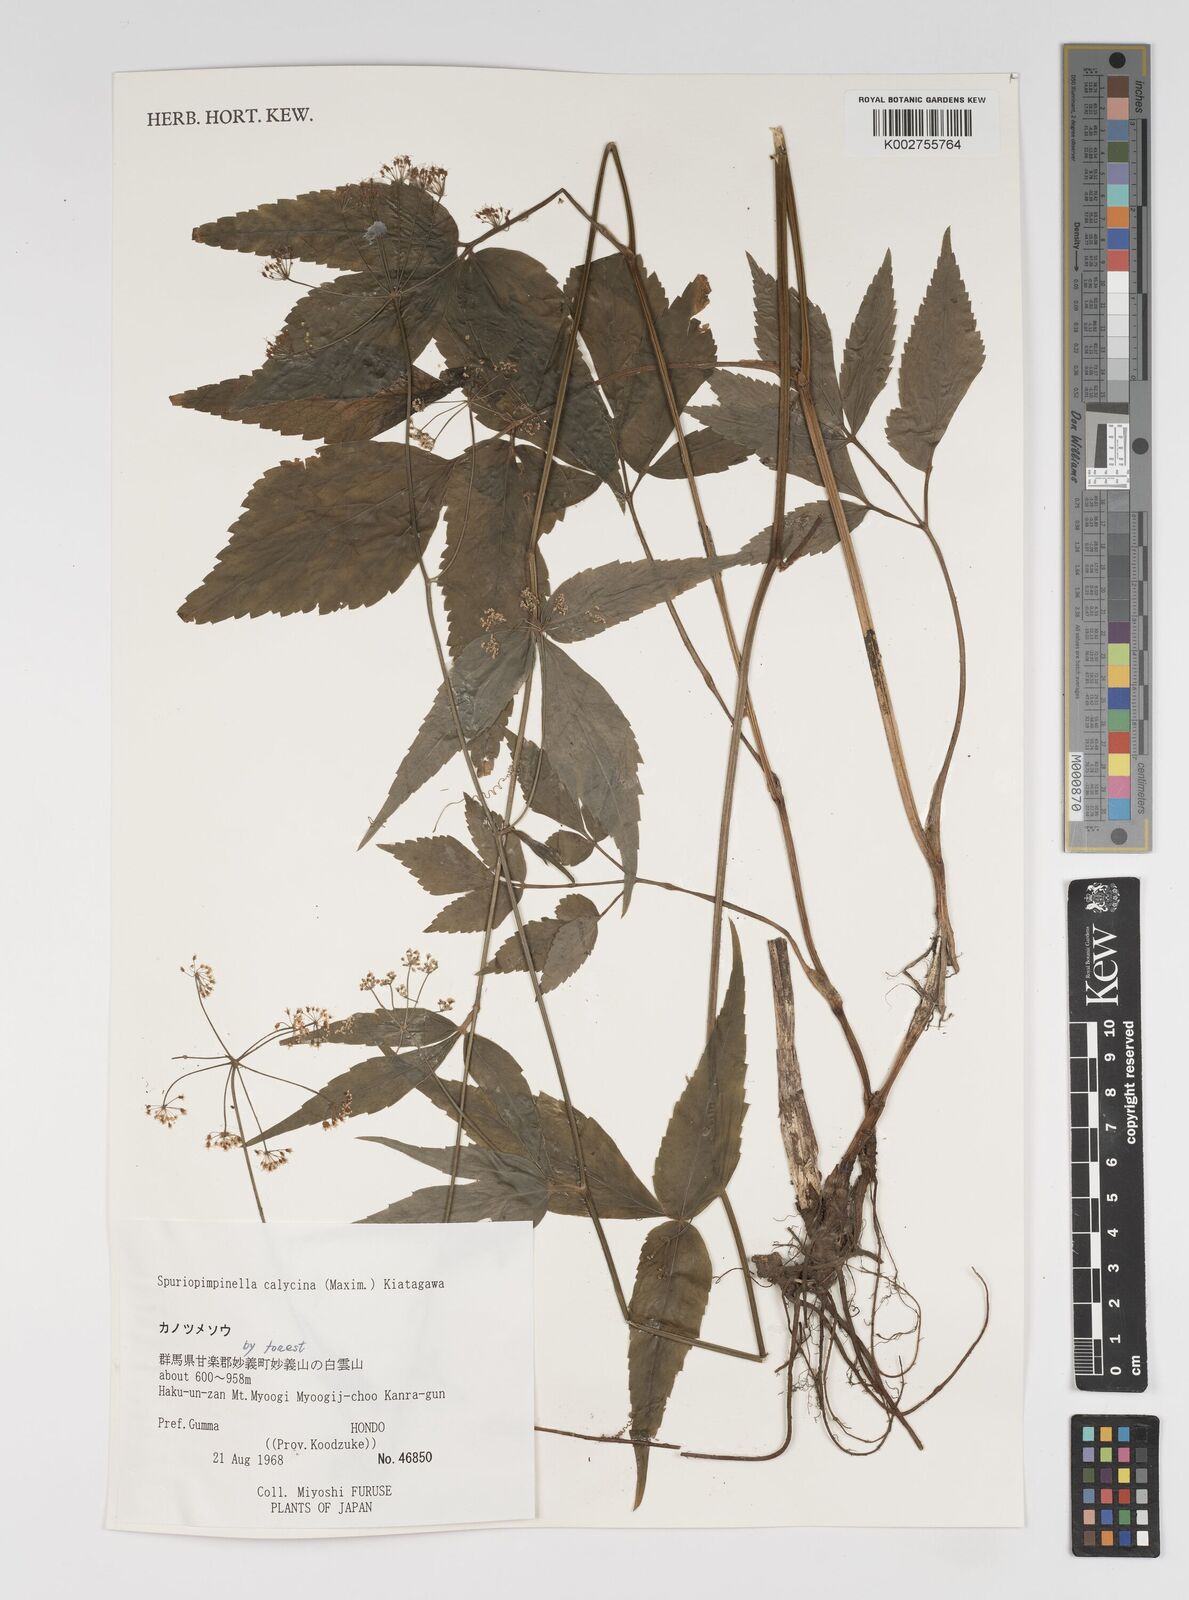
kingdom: Plantae
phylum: Tracheophyta
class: Magnoliopsida
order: Apiales
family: Apiaceae
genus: Spuriopimpinella
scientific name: Spuriopimpinella calycina
